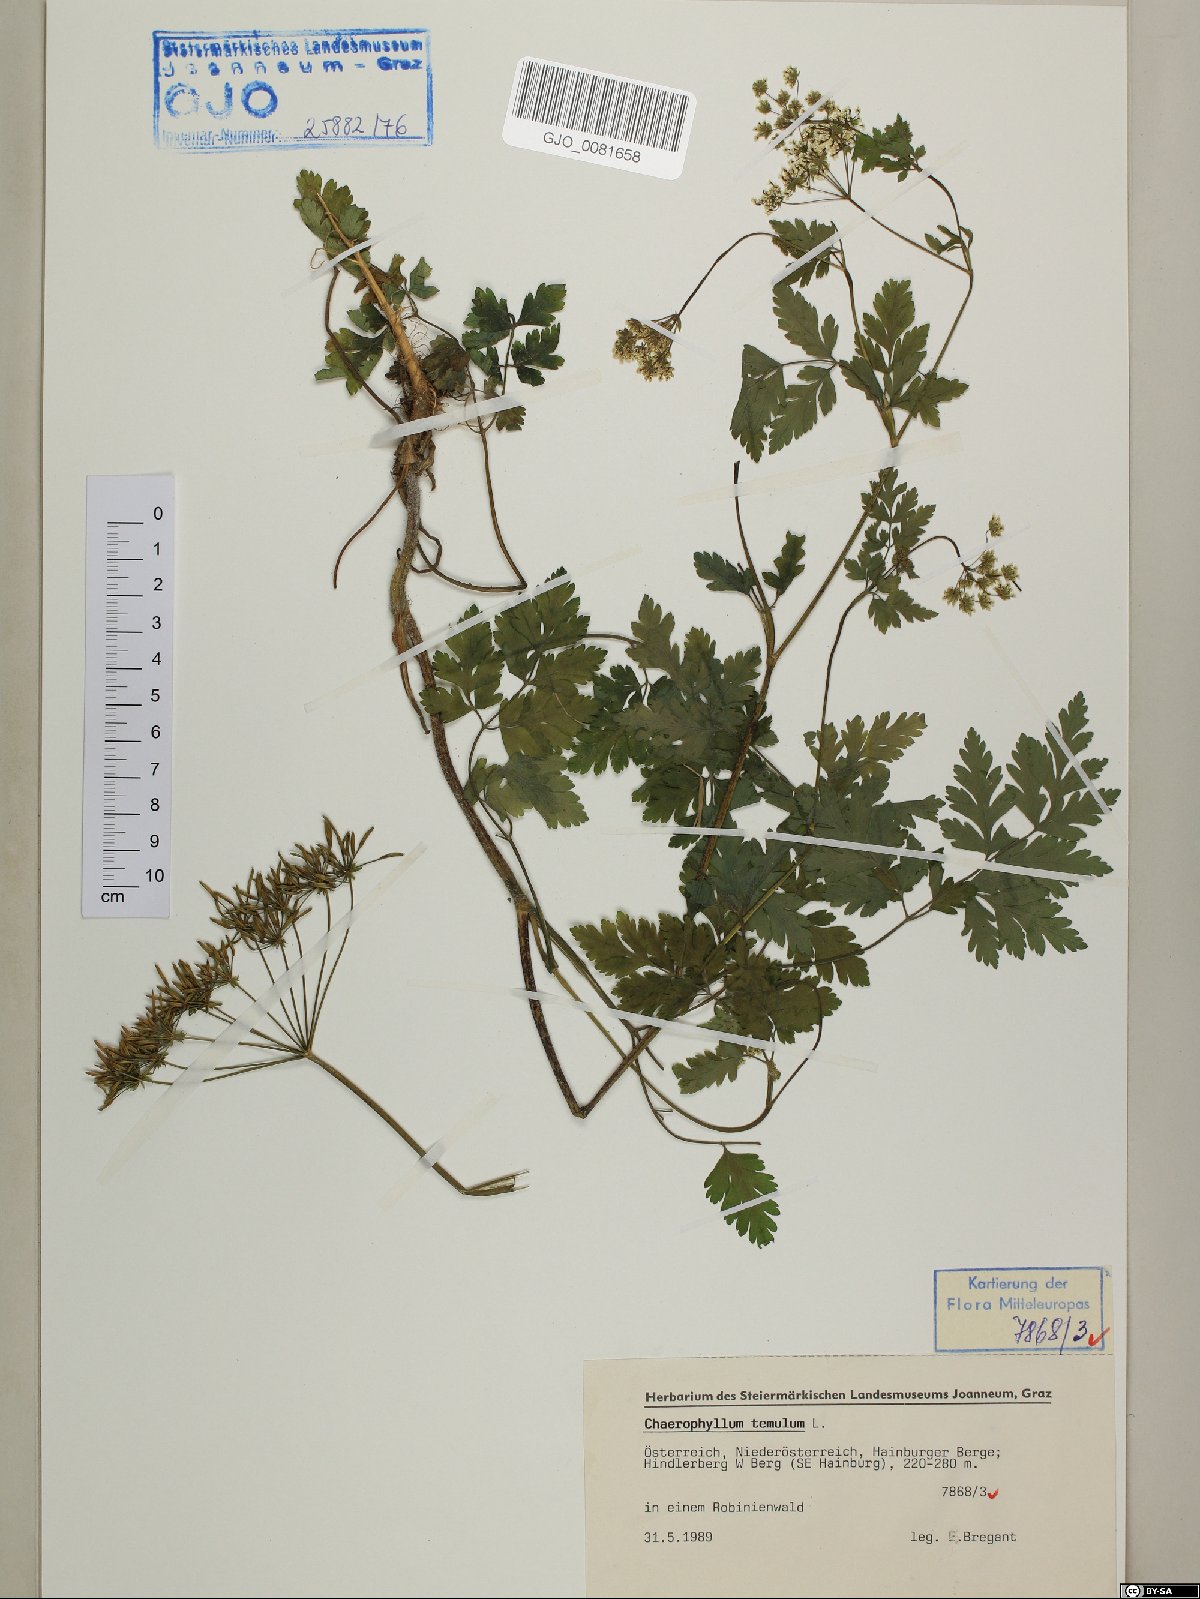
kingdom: Plantae
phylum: Tracheophyta
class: Magnoliopsida
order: Apiales
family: Apiaceae
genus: Chaerophyllum
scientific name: Chaerophyllum temulum
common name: Rough chervil
